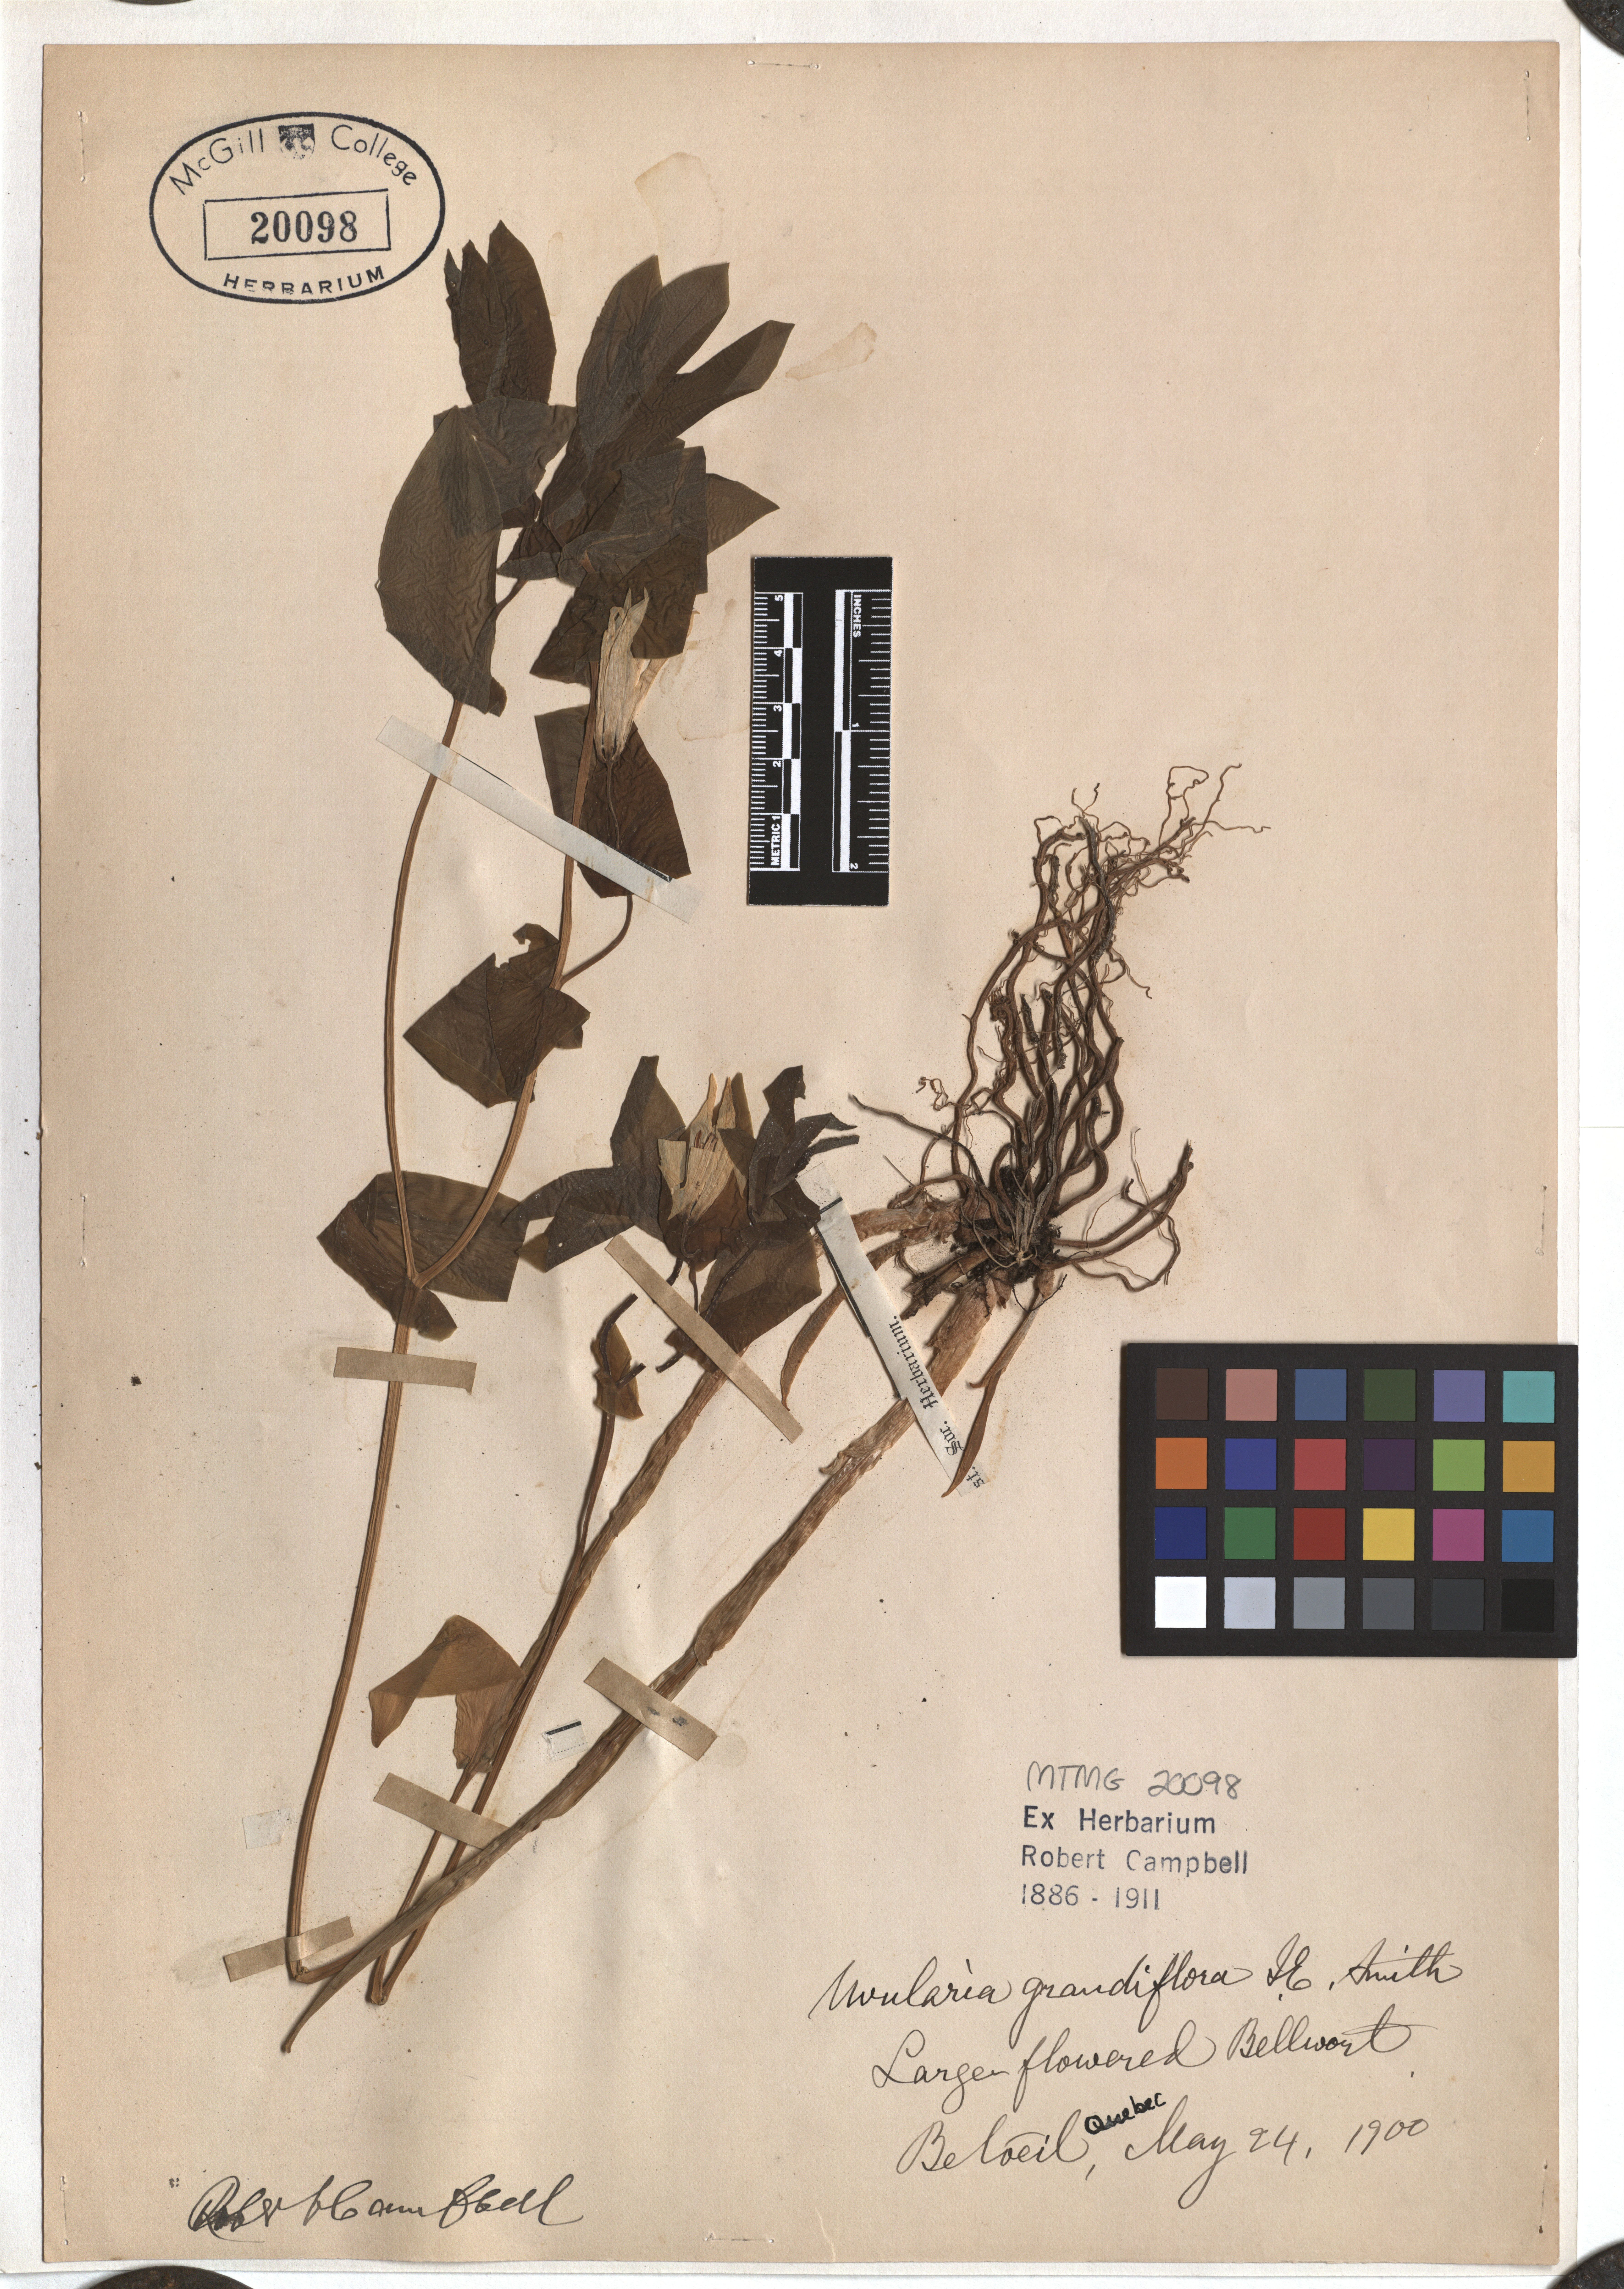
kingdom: Plantae
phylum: Tracheophyta
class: Liliopsida
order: Liliales
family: Colchicaceae
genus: Uvularia
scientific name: Uvularia grandiflora
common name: Bellwort
